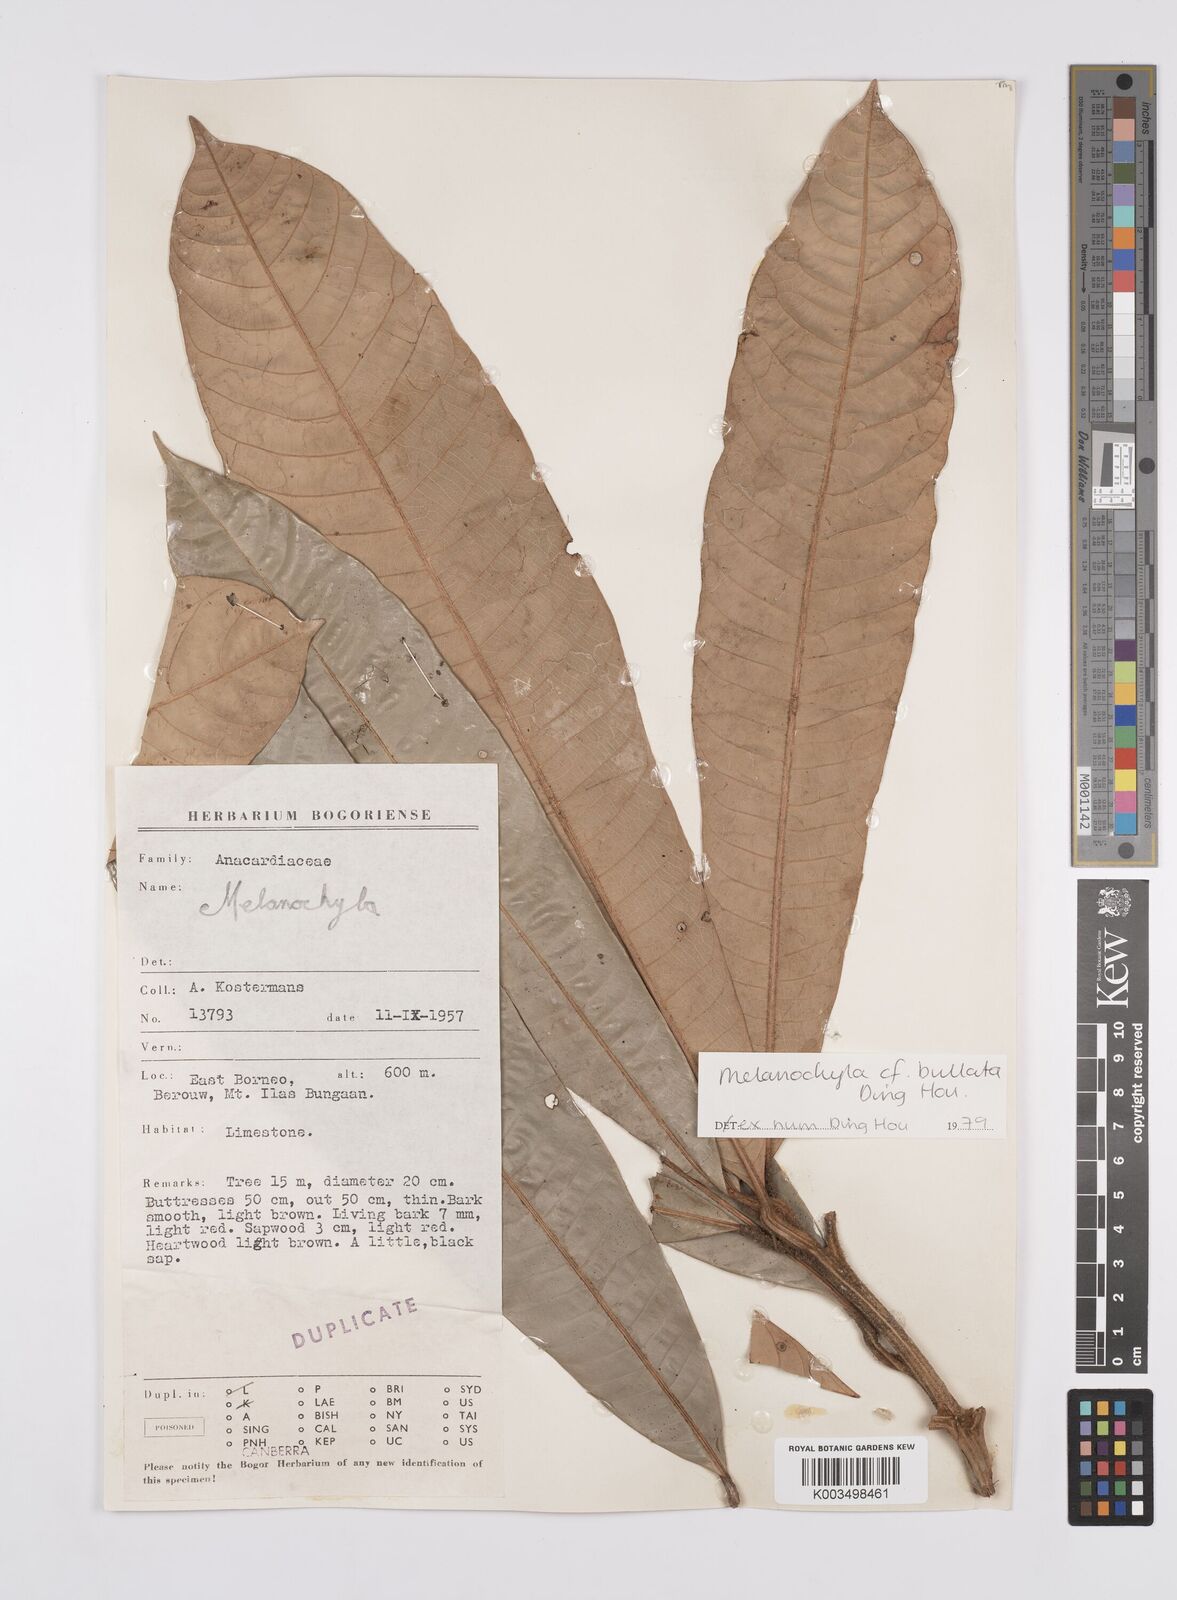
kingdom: Plantae
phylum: Tracheophyta
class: Magnoliopsida
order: Sapindales
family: Anacardiaceae
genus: Melanochyla
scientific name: Melanochyla bullata
